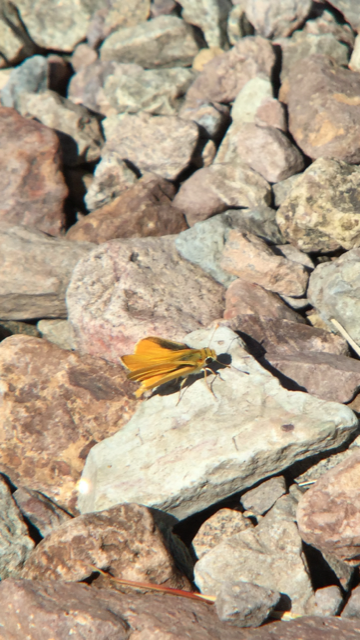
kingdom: Animalia
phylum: Arthropoda
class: Insecta
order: Lepidoptera
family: Hesperiidae
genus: Copaeodes
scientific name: Copaeodes aurantiaca
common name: Orange Skipperling
